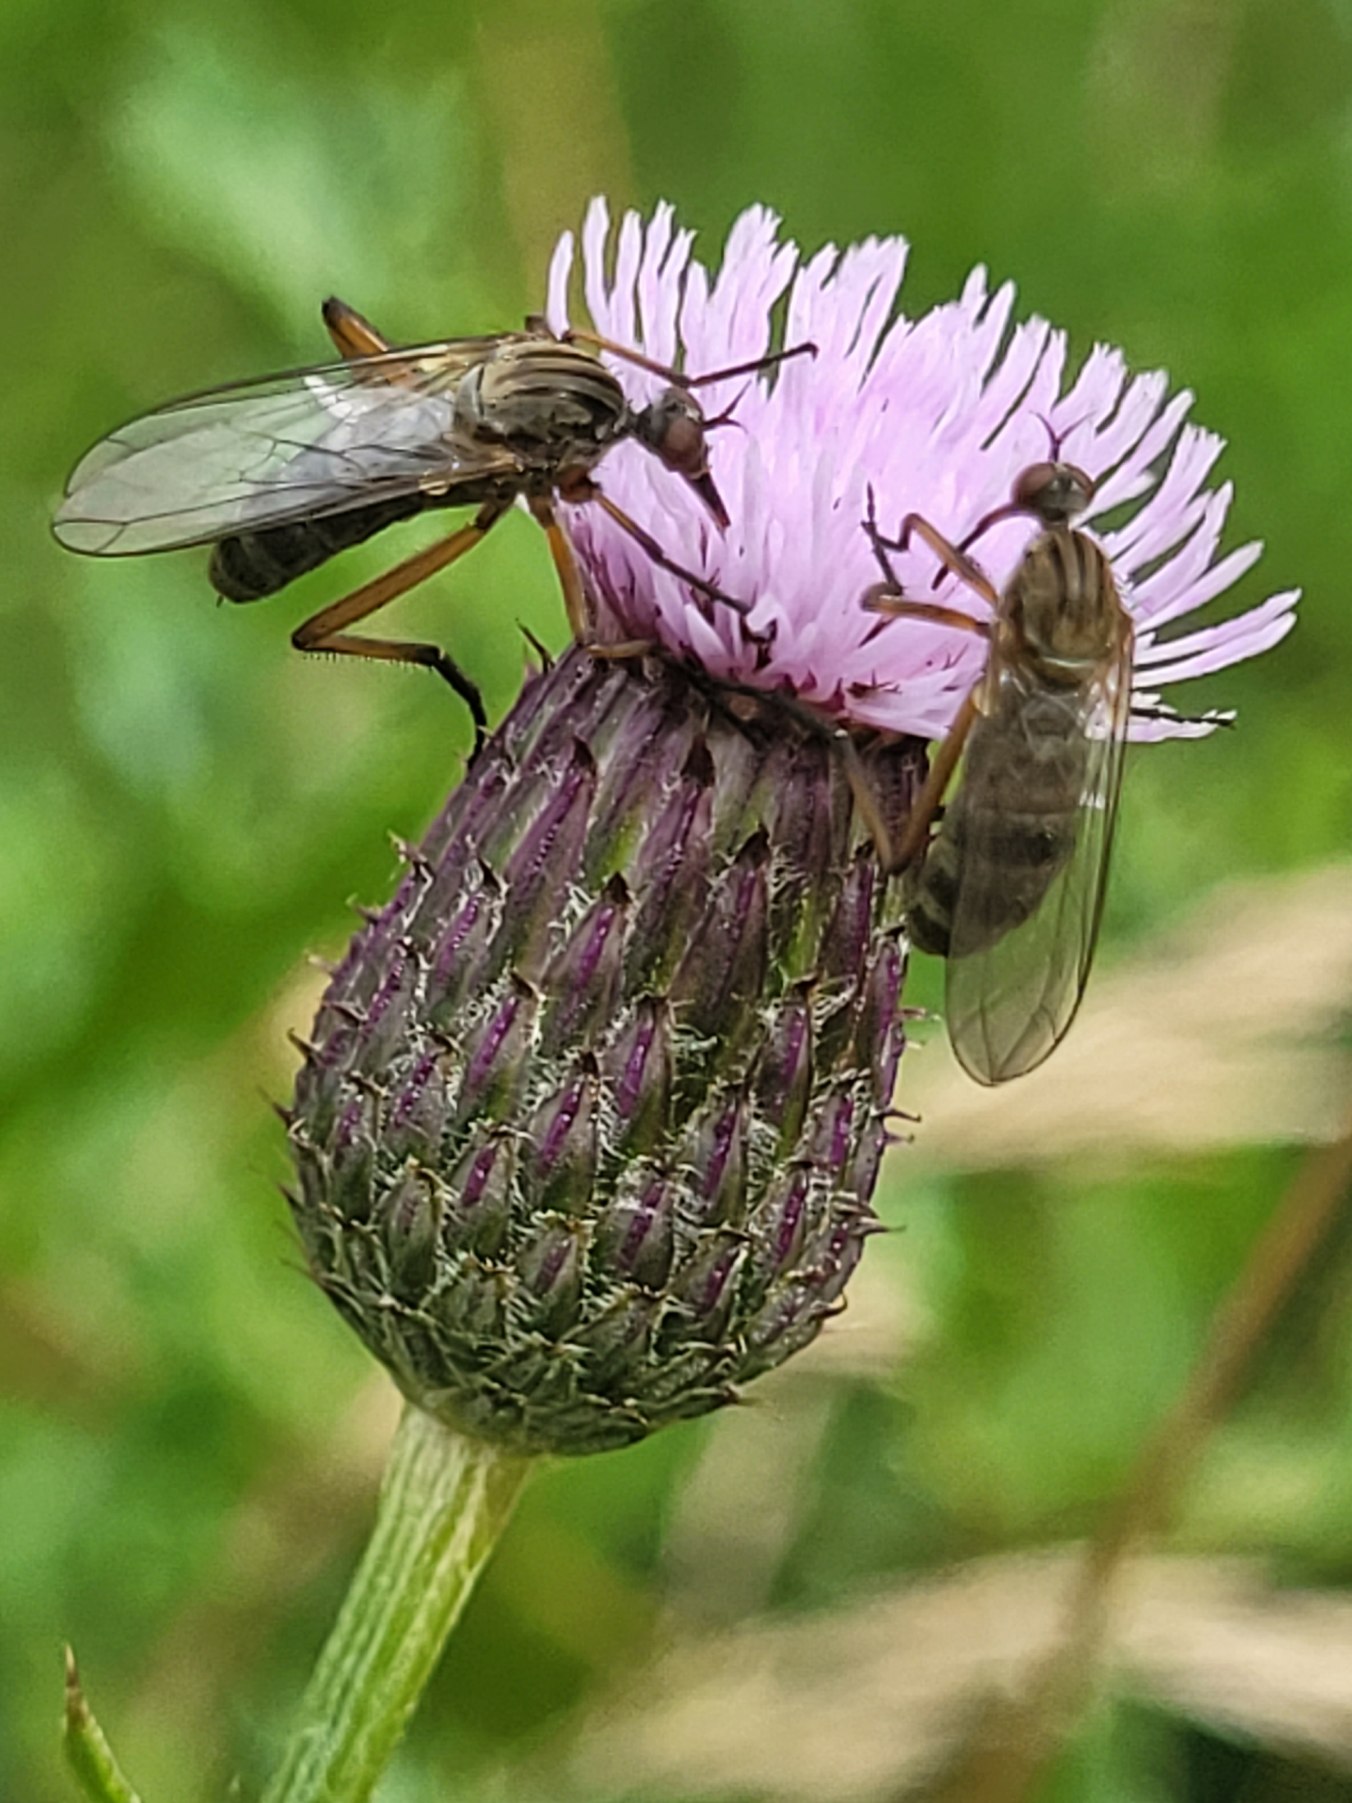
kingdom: Animalia
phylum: Arthropoda
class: Insecta
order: Diptera
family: Empididae
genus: Empis
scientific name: Empis livida
